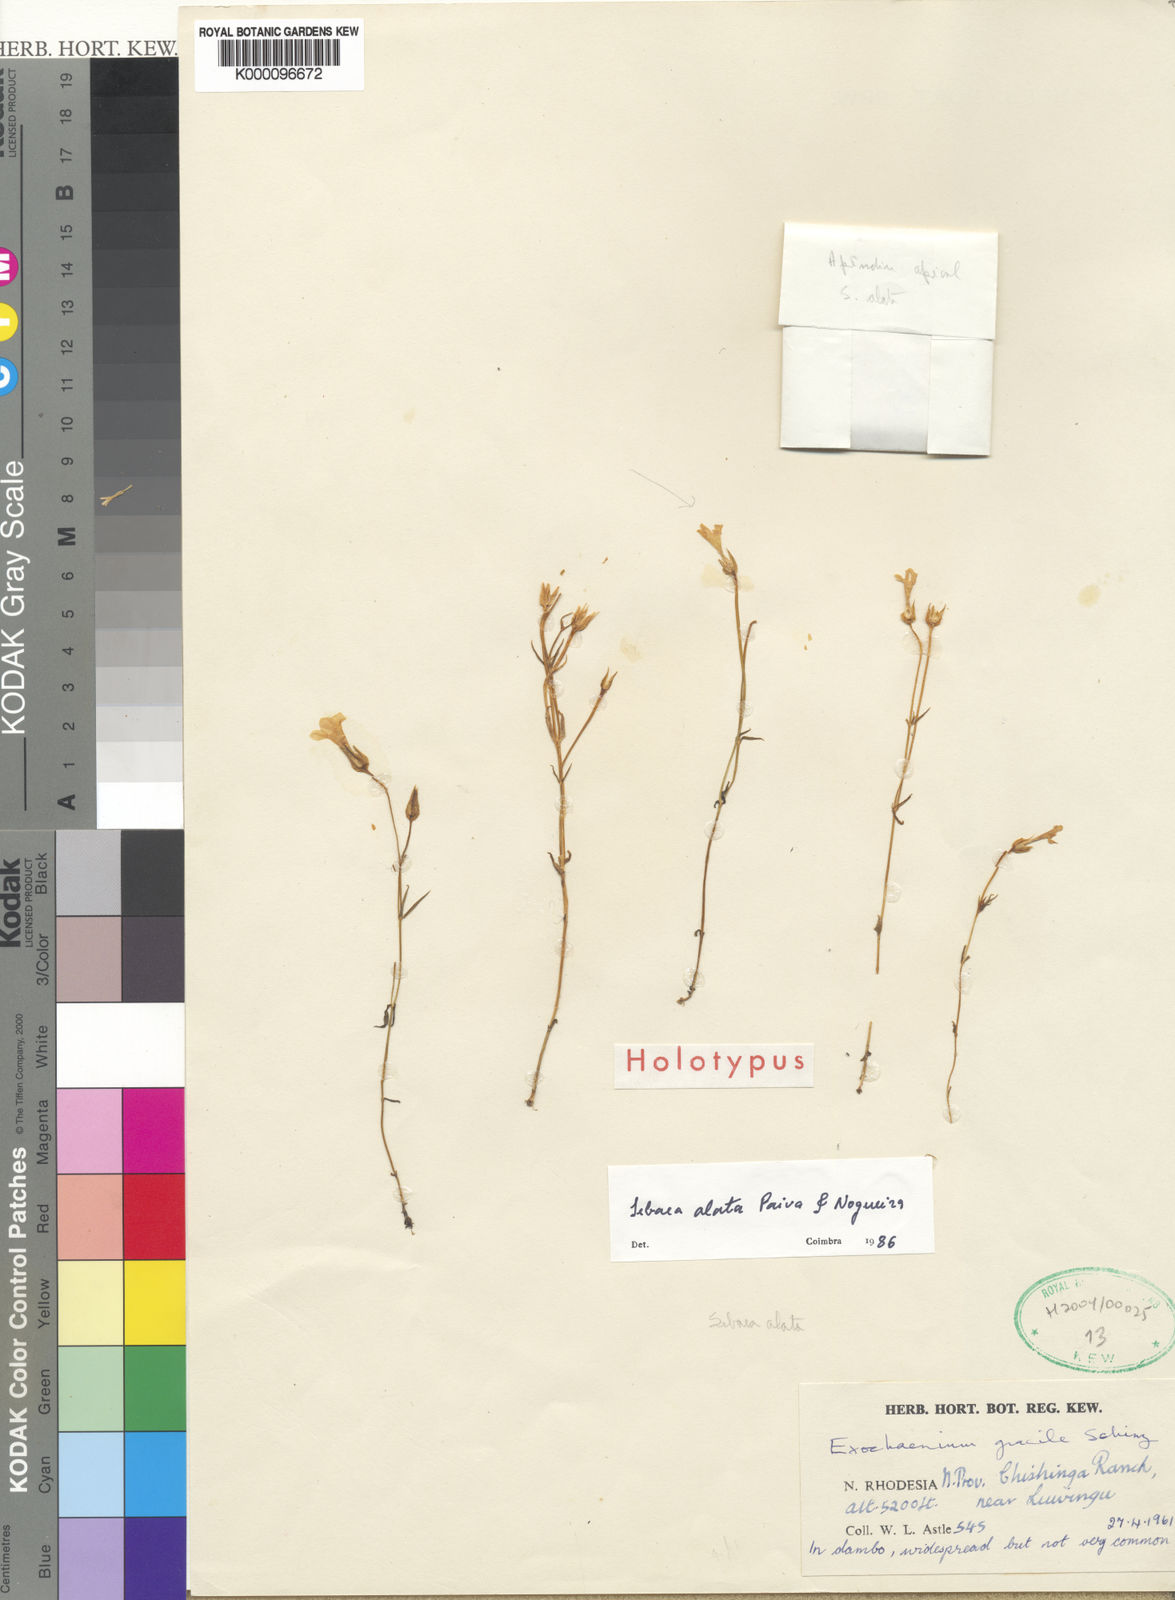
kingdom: Plantae
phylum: Tracheophyta
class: Magnoliopsida
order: Gentianales
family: Gentianaceae
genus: Exochaenium
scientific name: Exochaenium alatum
